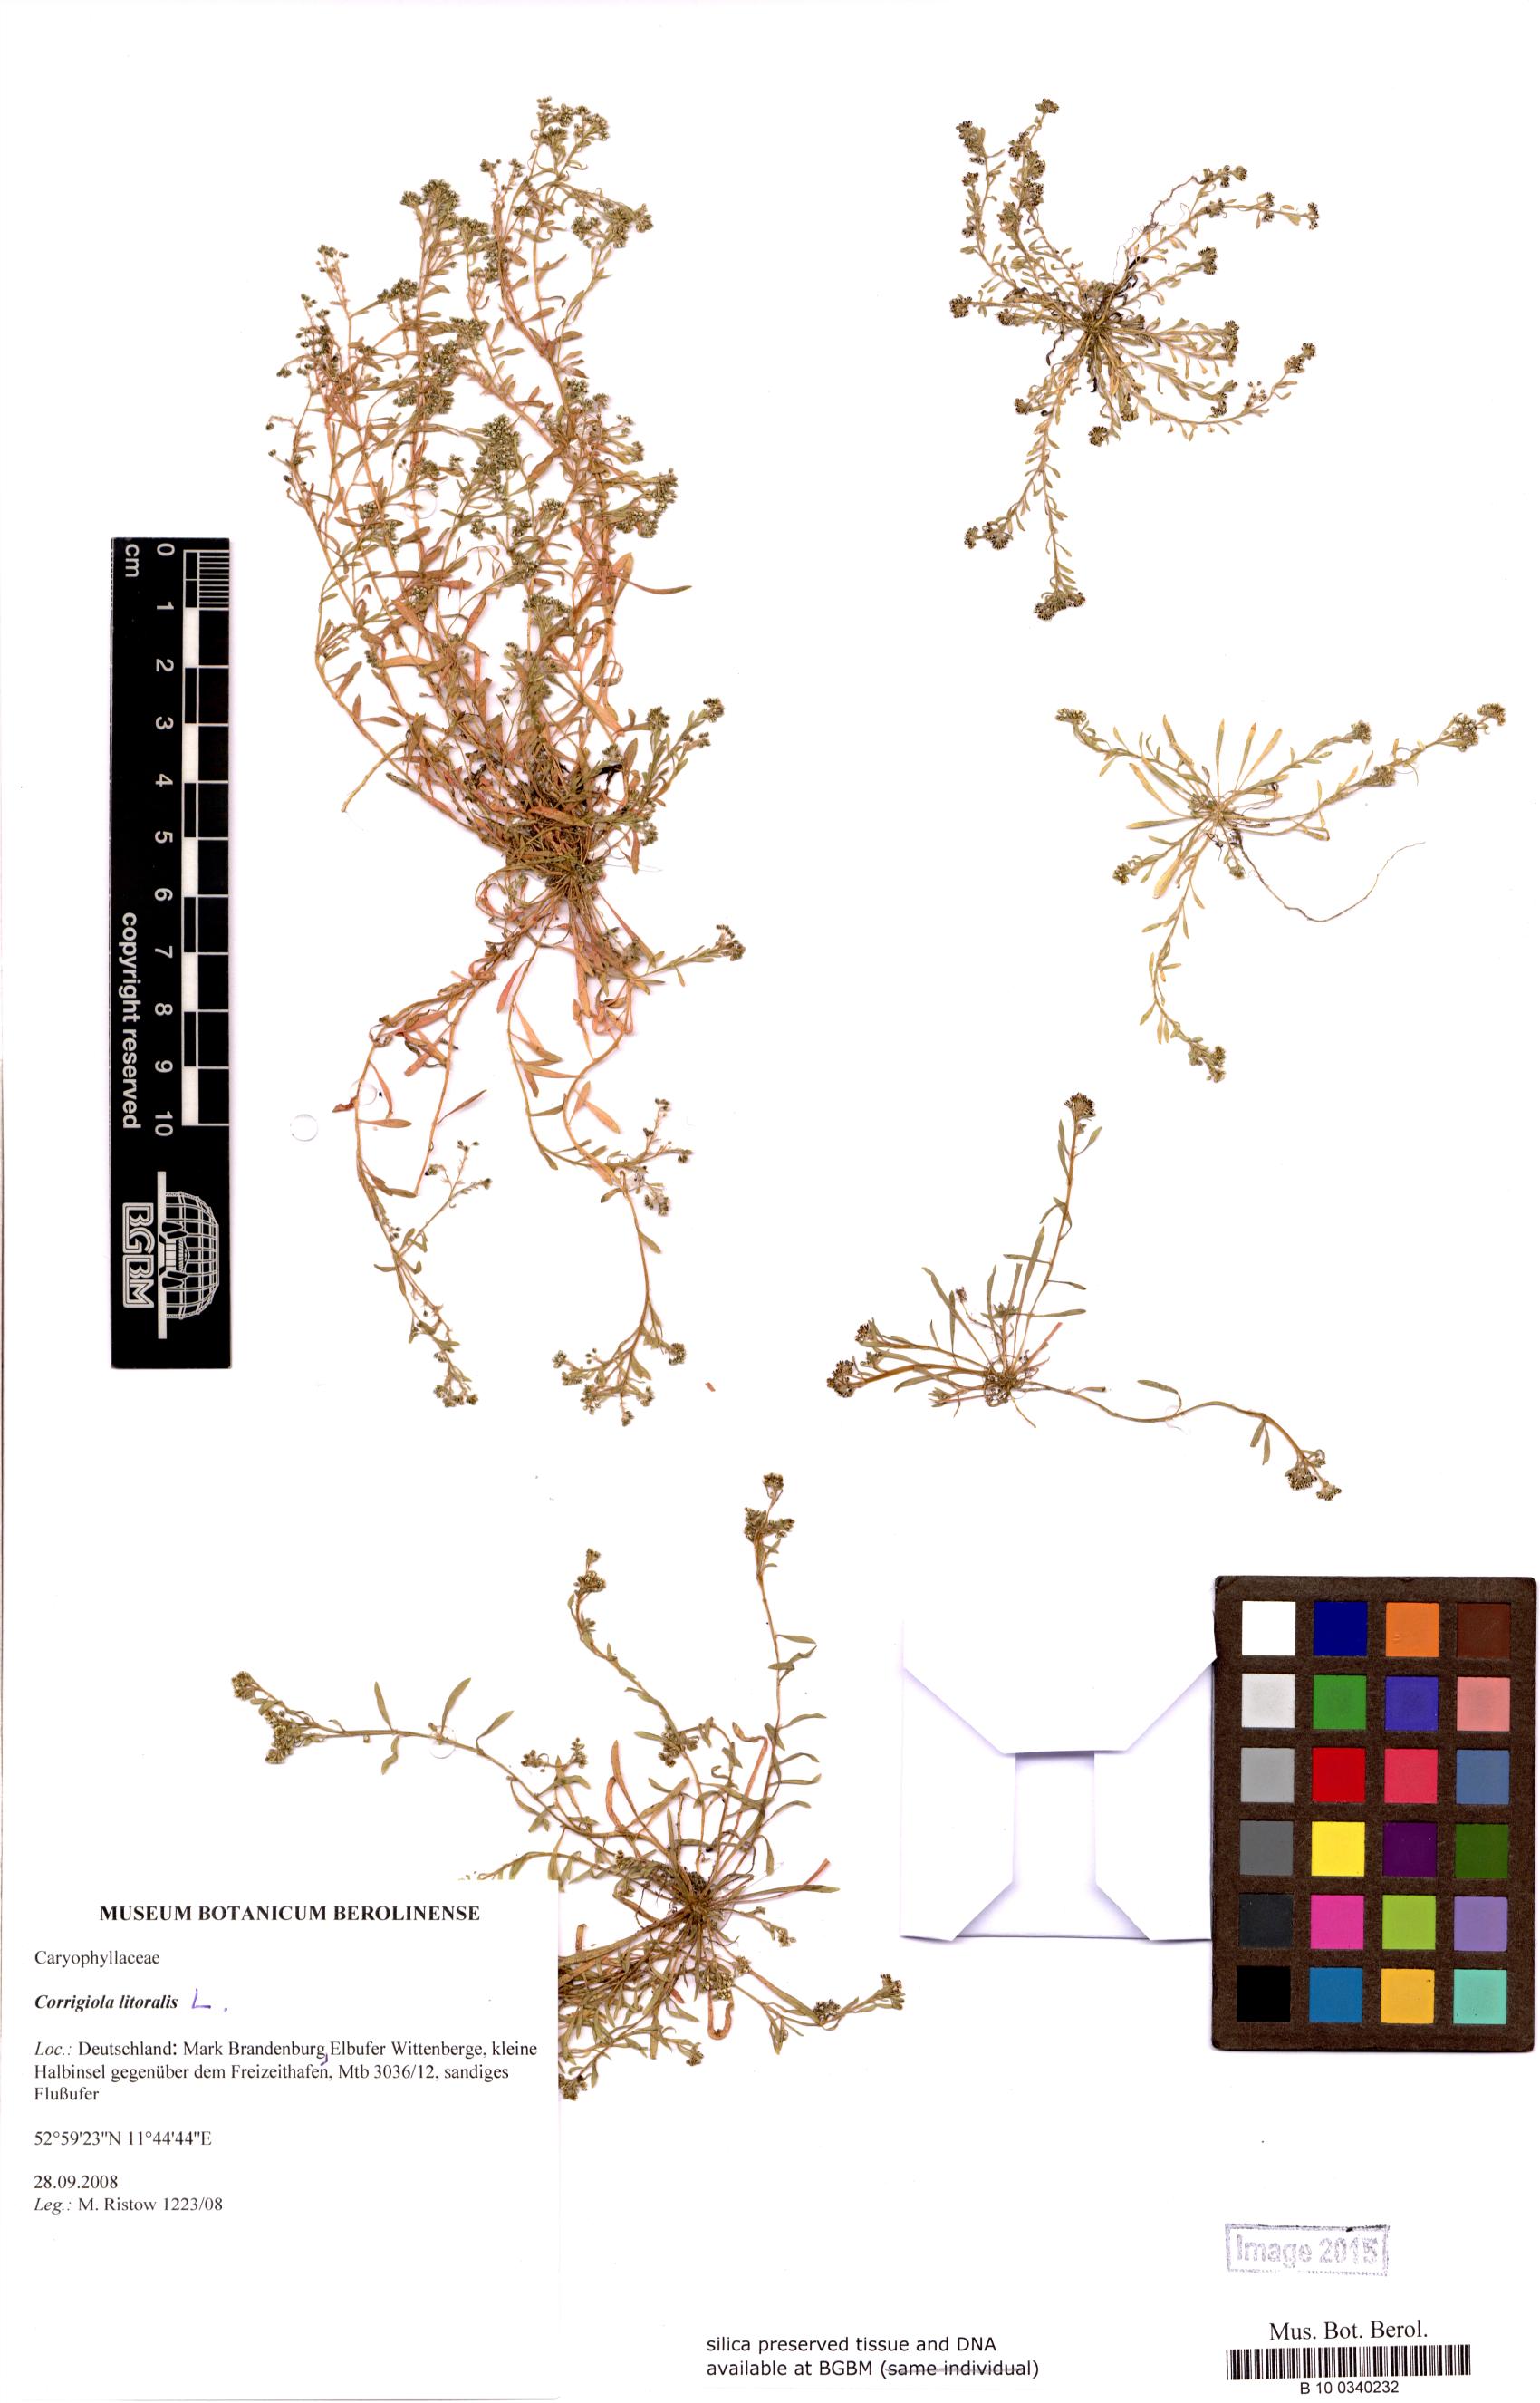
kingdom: Plantae
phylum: Tracheophyta
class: Magnoliopsida
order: Caryophyllales
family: Caryophyllaceae
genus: Corrigiola
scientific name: Corrigiola litoralis
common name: Strapwort
